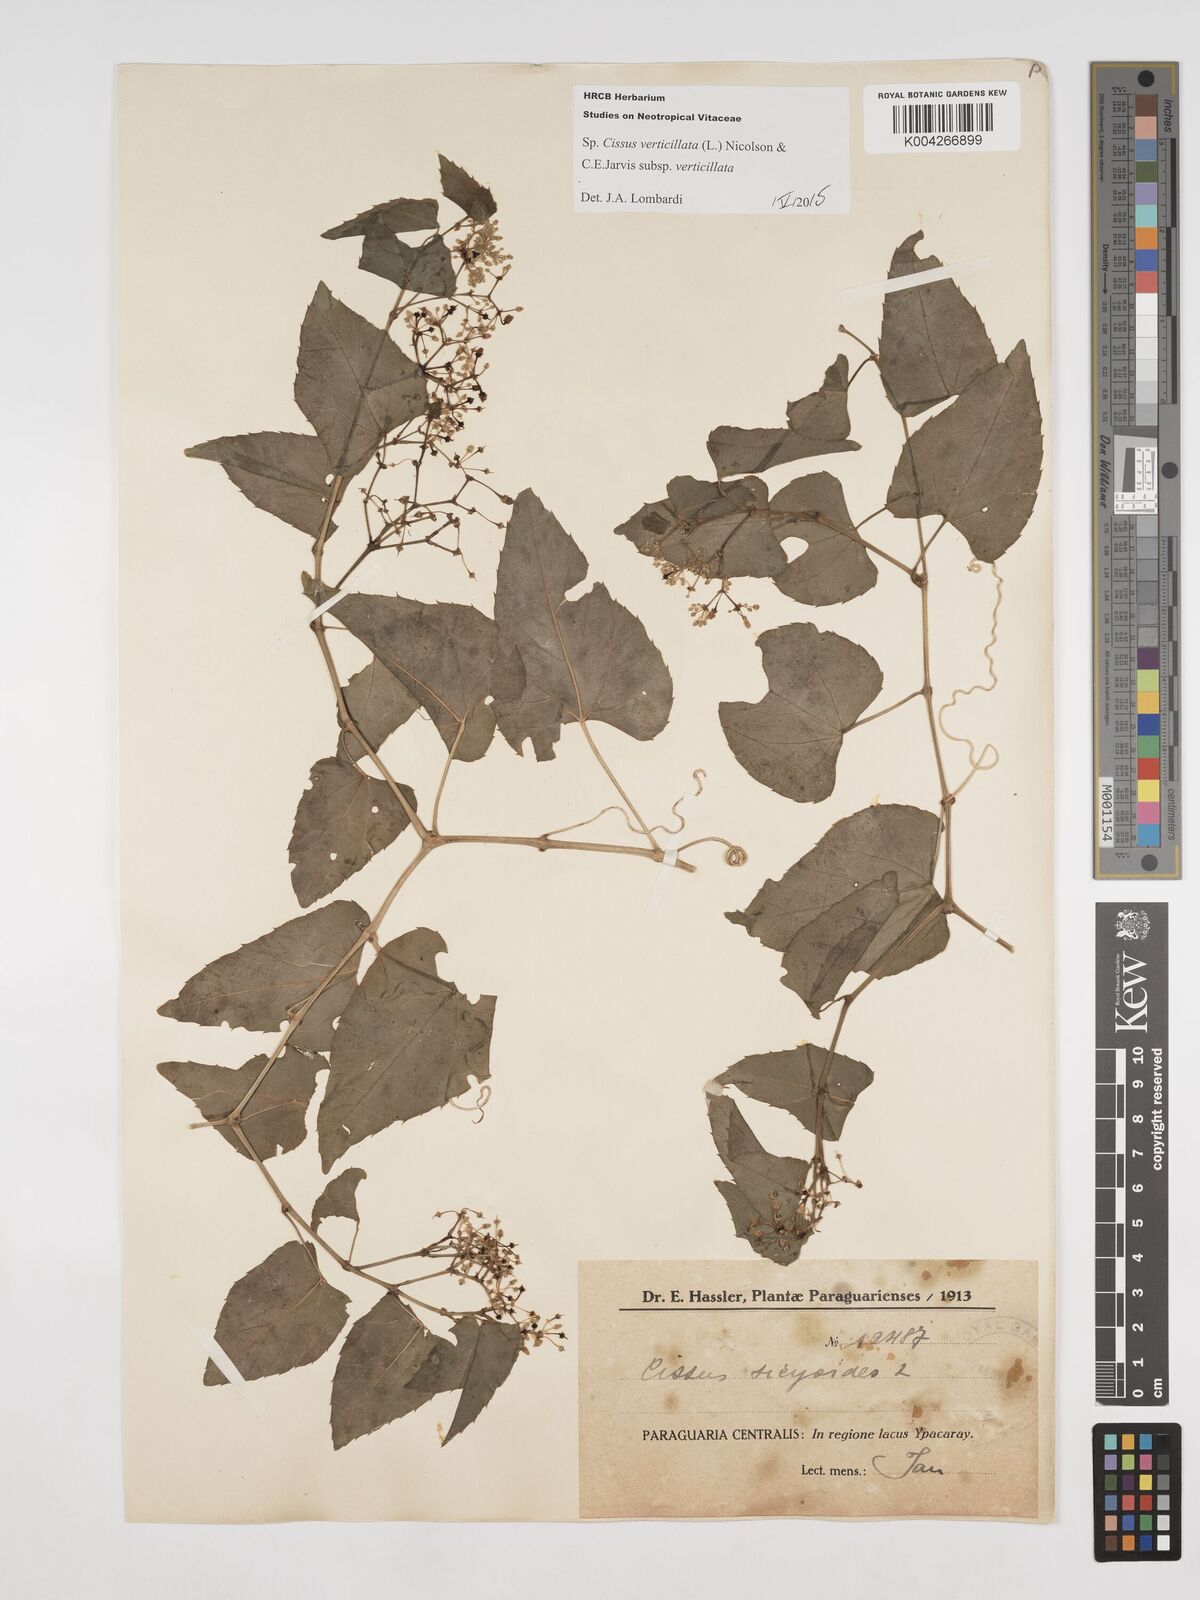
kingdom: Plantae
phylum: Tracheophyta
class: Magnoliopsida
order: Vitales
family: Vitaceae
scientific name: Vitaceae
